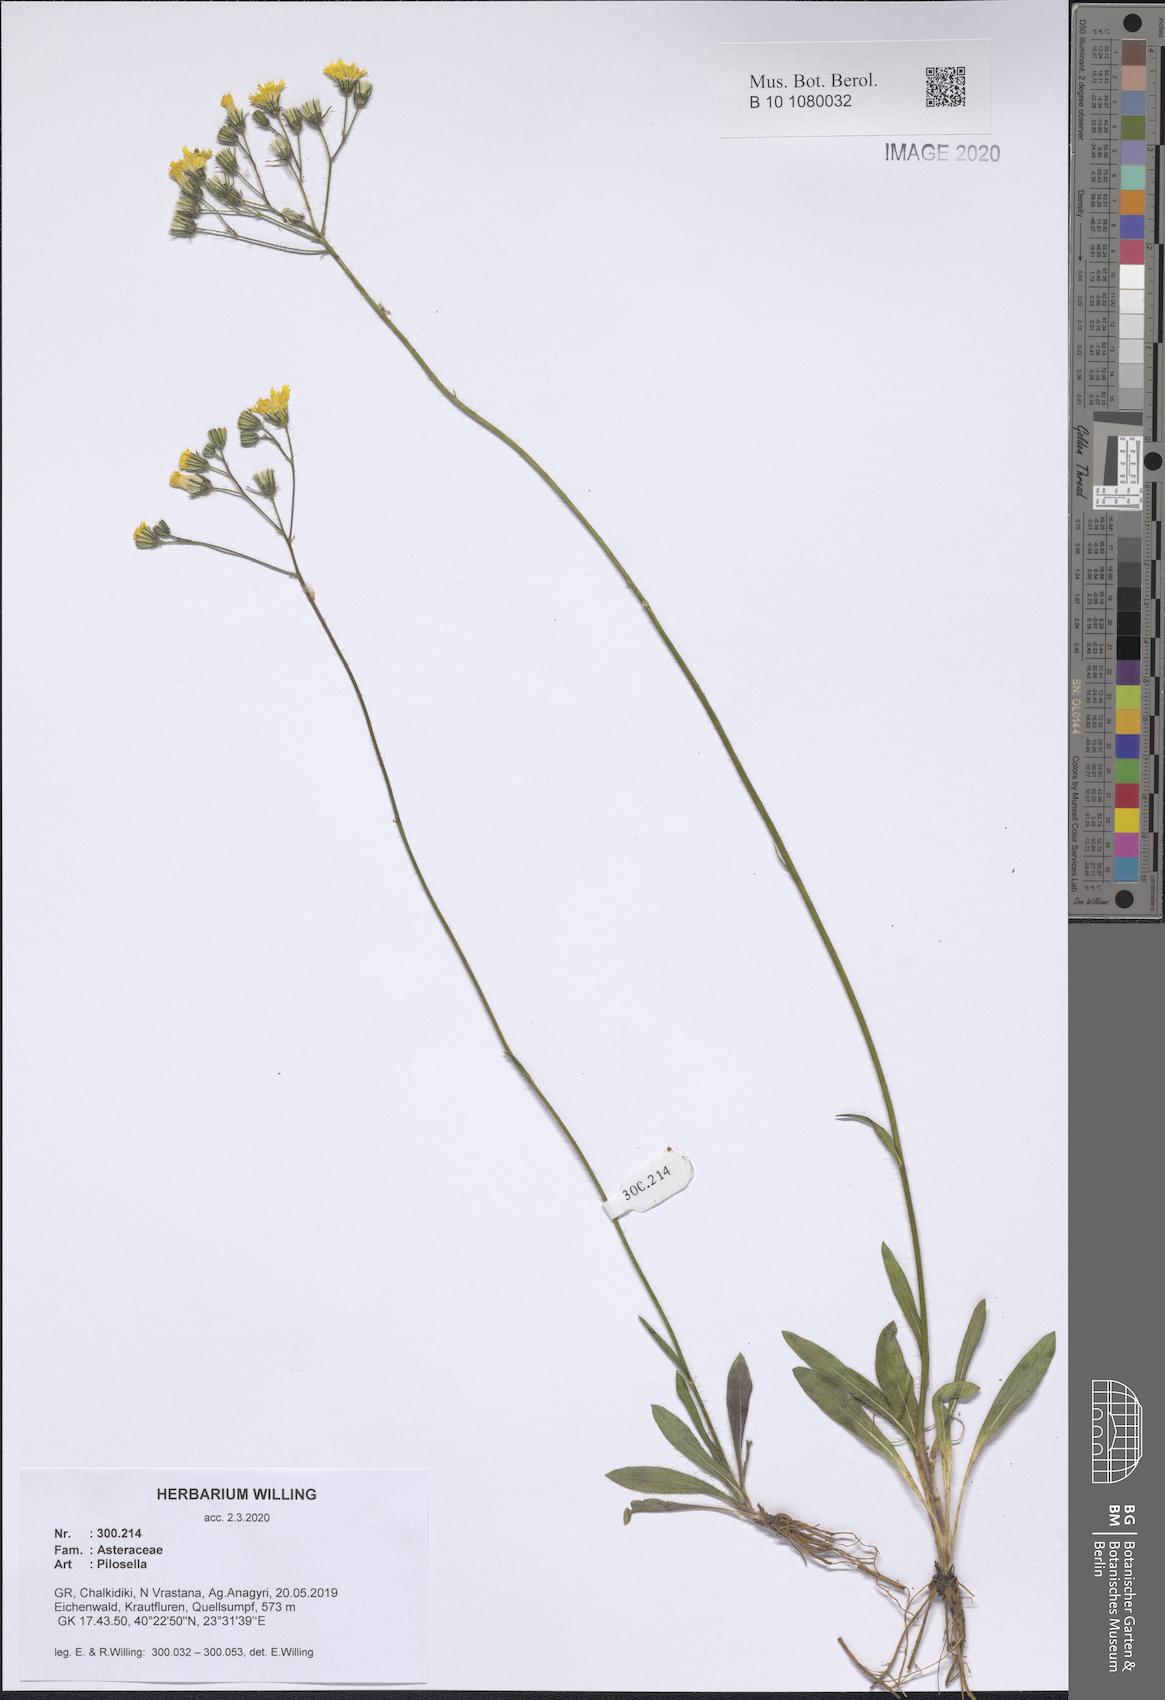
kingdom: Plantae
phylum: Tracheophyta
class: Magnoliopsida
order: Asterales
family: Asteraceae
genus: Pilosella
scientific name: Pilosella
